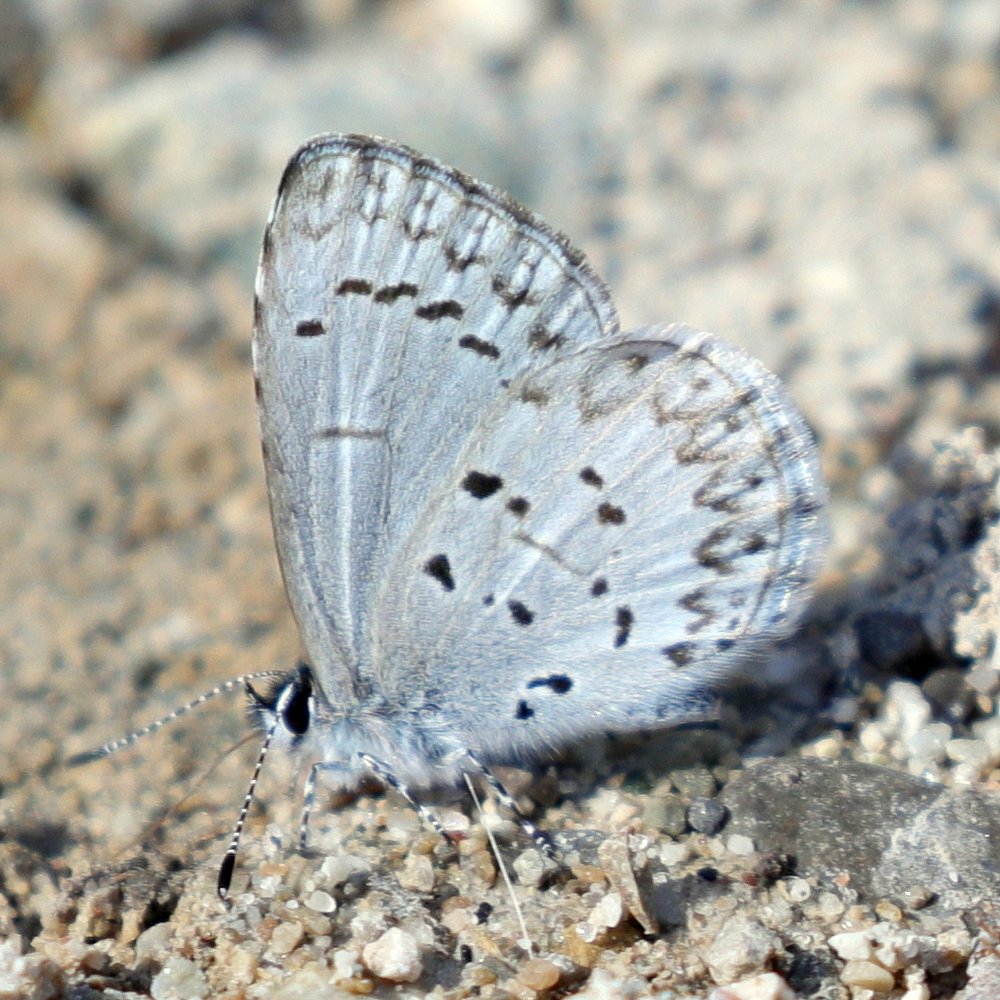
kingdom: Animalia
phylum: Arthropoda
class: Insecta
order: Lepidoptera
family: Lycaenidae
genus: Celastrina
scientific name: Celastrina lucia
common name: Northern Spring Azure
